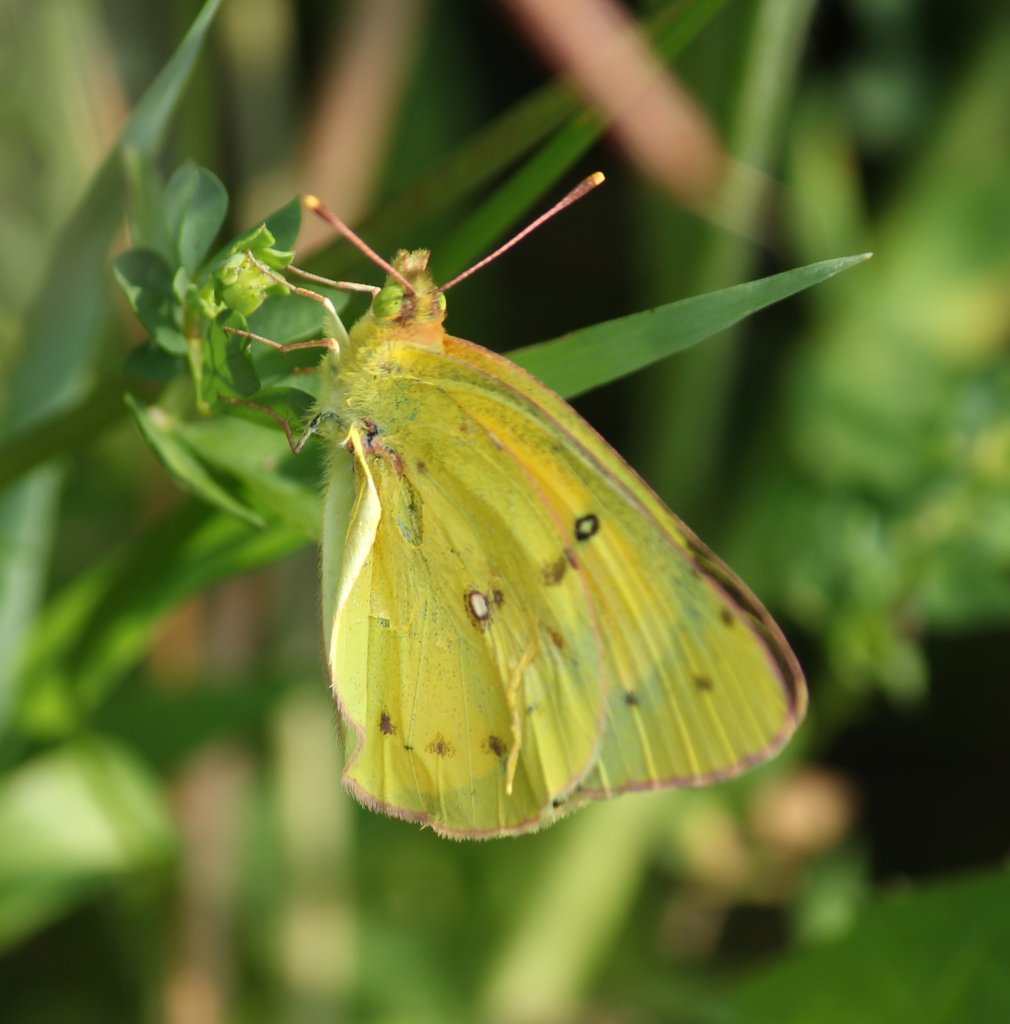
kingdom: Animalia
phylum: Arthropoda
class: Insecta
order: Lepidoptera
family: Pieridae
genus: Colias
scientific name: Colias eurytheme
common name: Orange Sulphur
